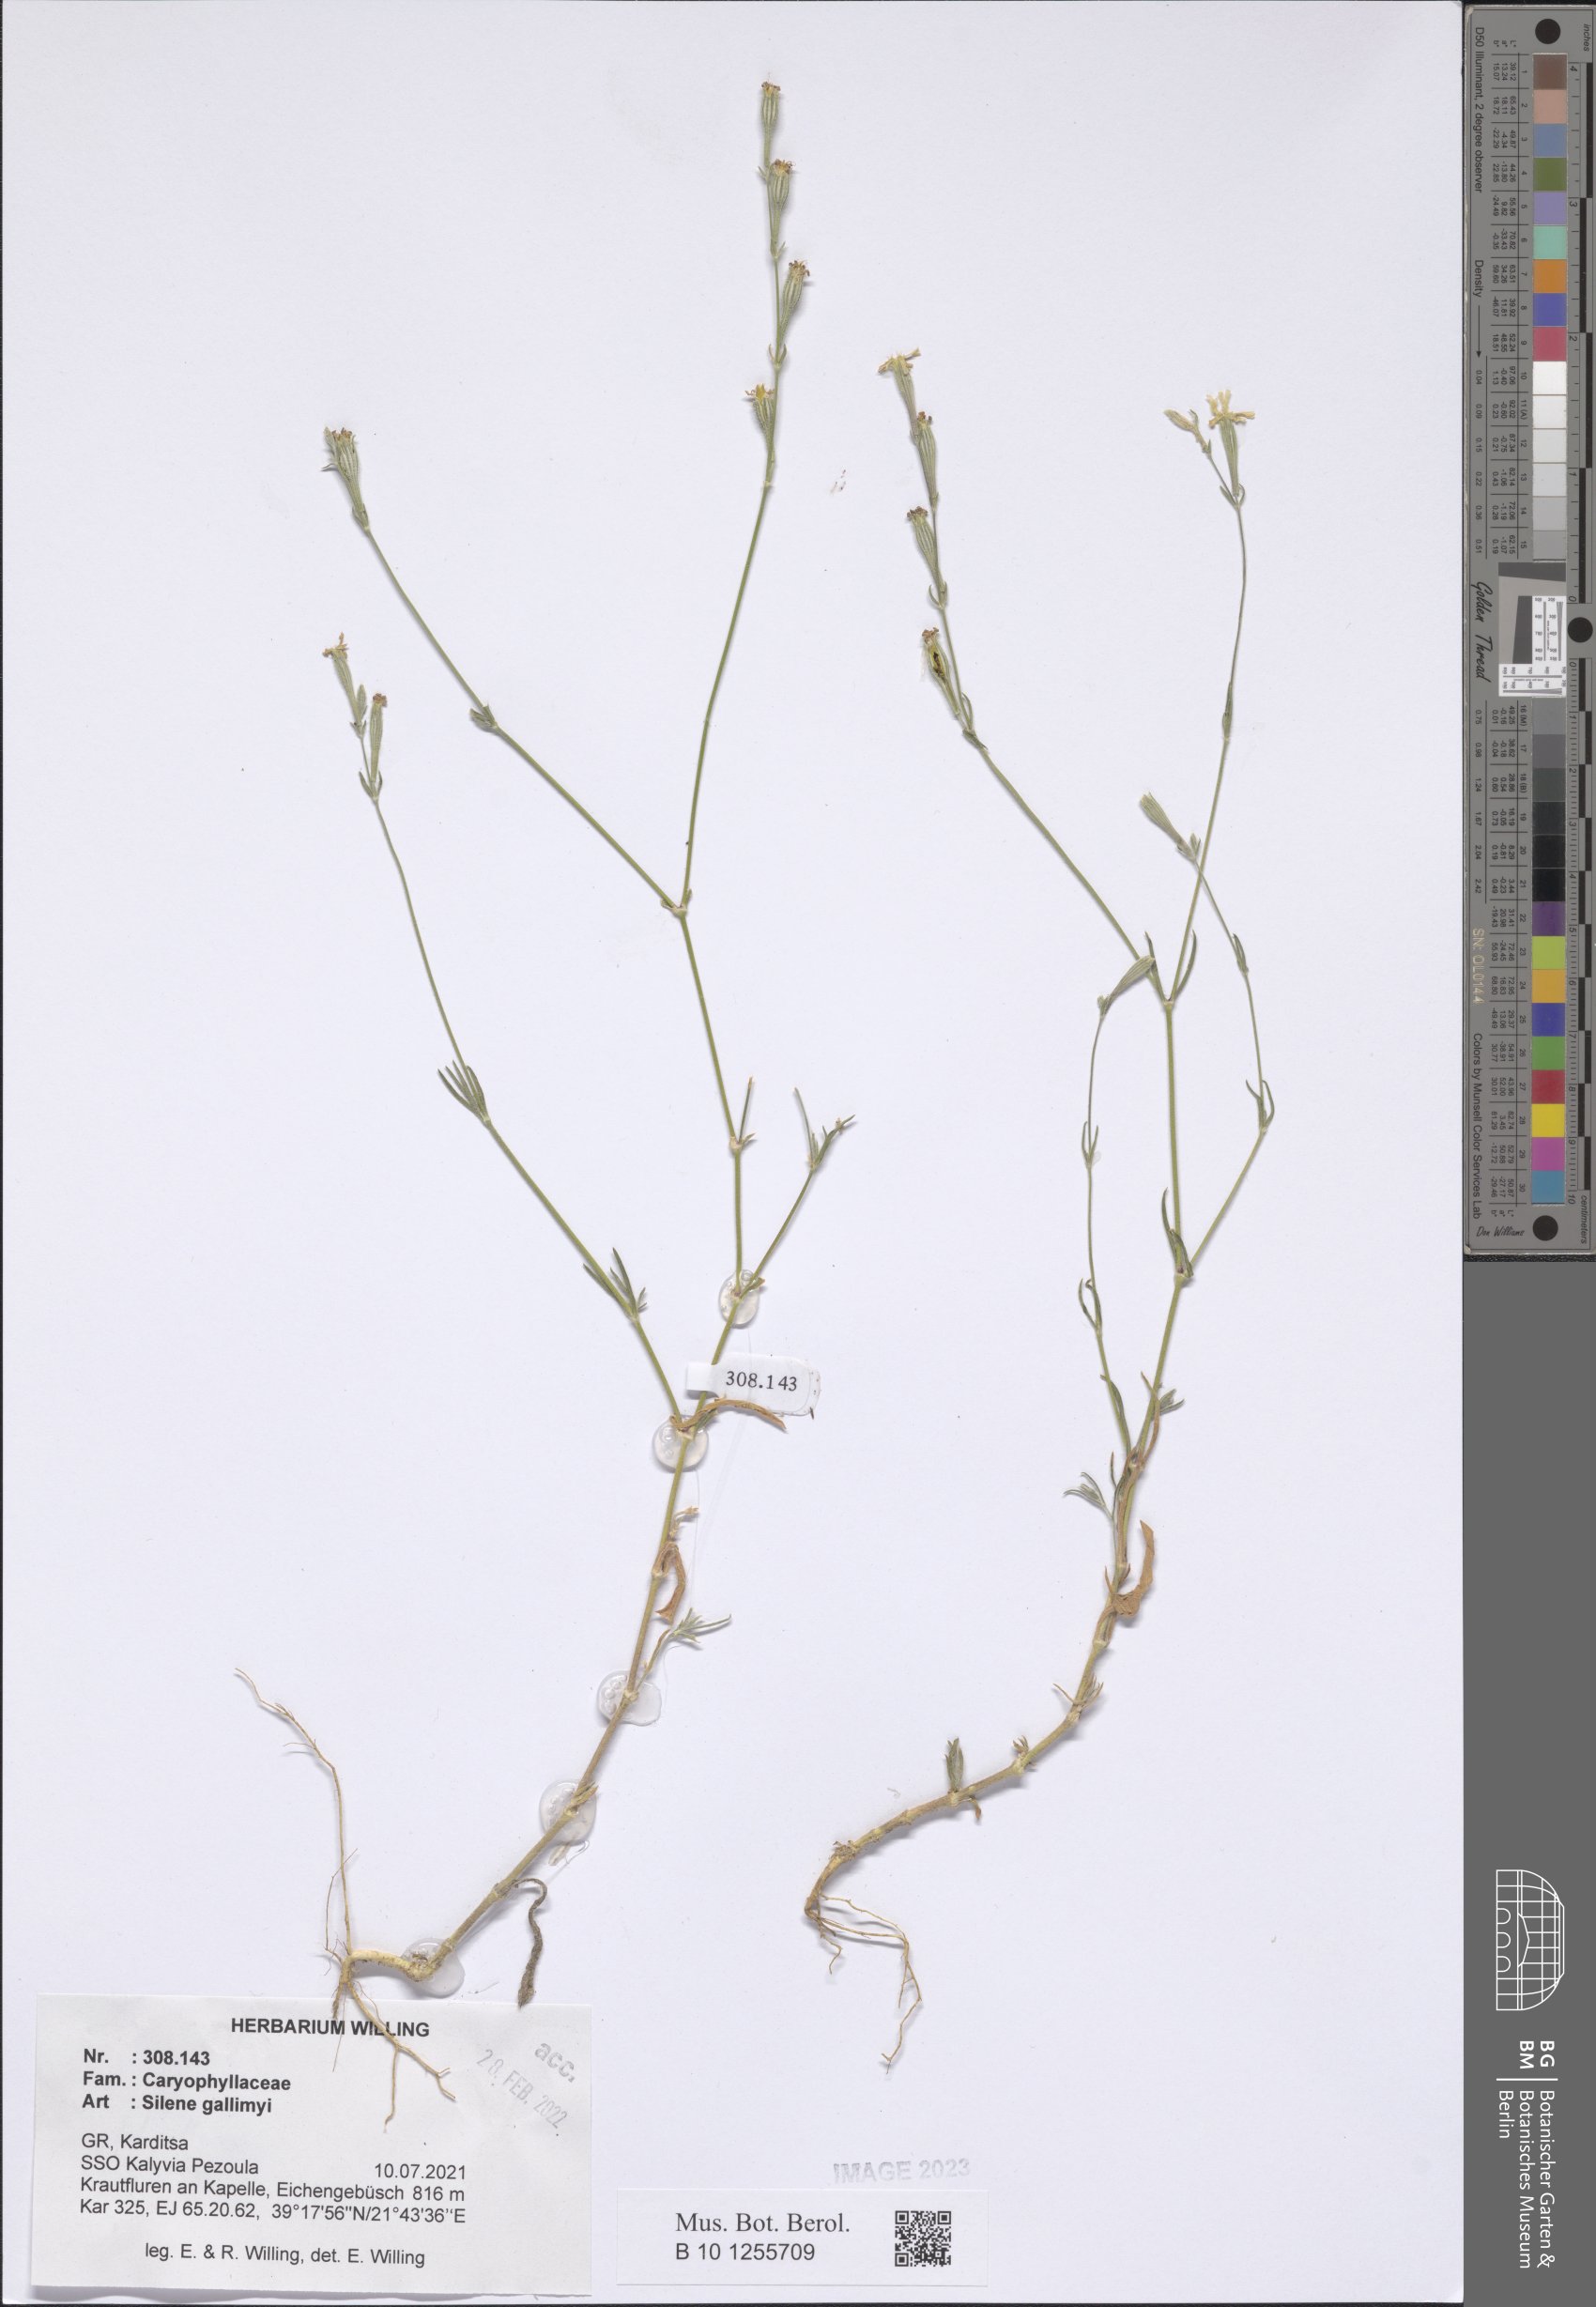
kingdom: Plantae
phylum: Tracheophyta
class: Magnoliopsida
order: Caryophyllales
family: Caryophyllaceae
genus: Silene
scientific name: Silene gallinyi
